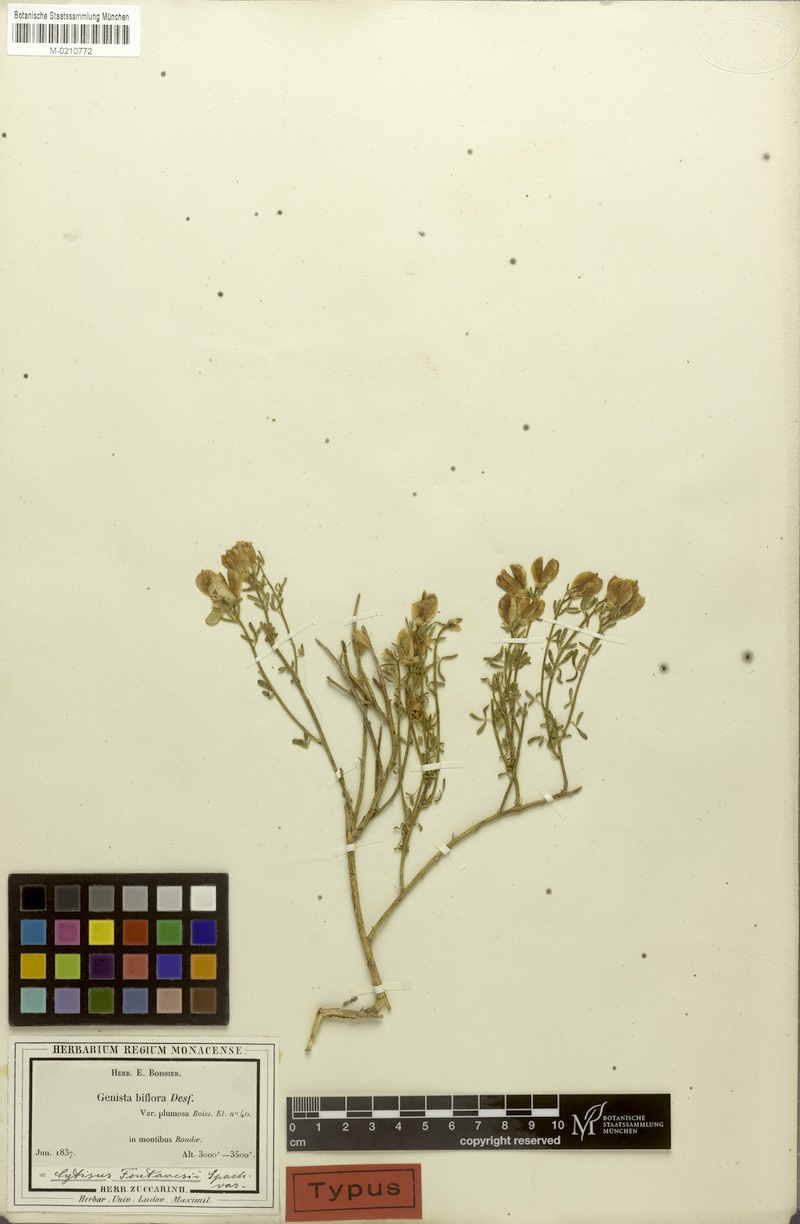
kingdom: Plantae
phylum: Tracheophyta
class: Magnoliopsida
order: Fabales
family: Fabaceae
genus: Cytisus
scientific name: Cytisus fontanesii
